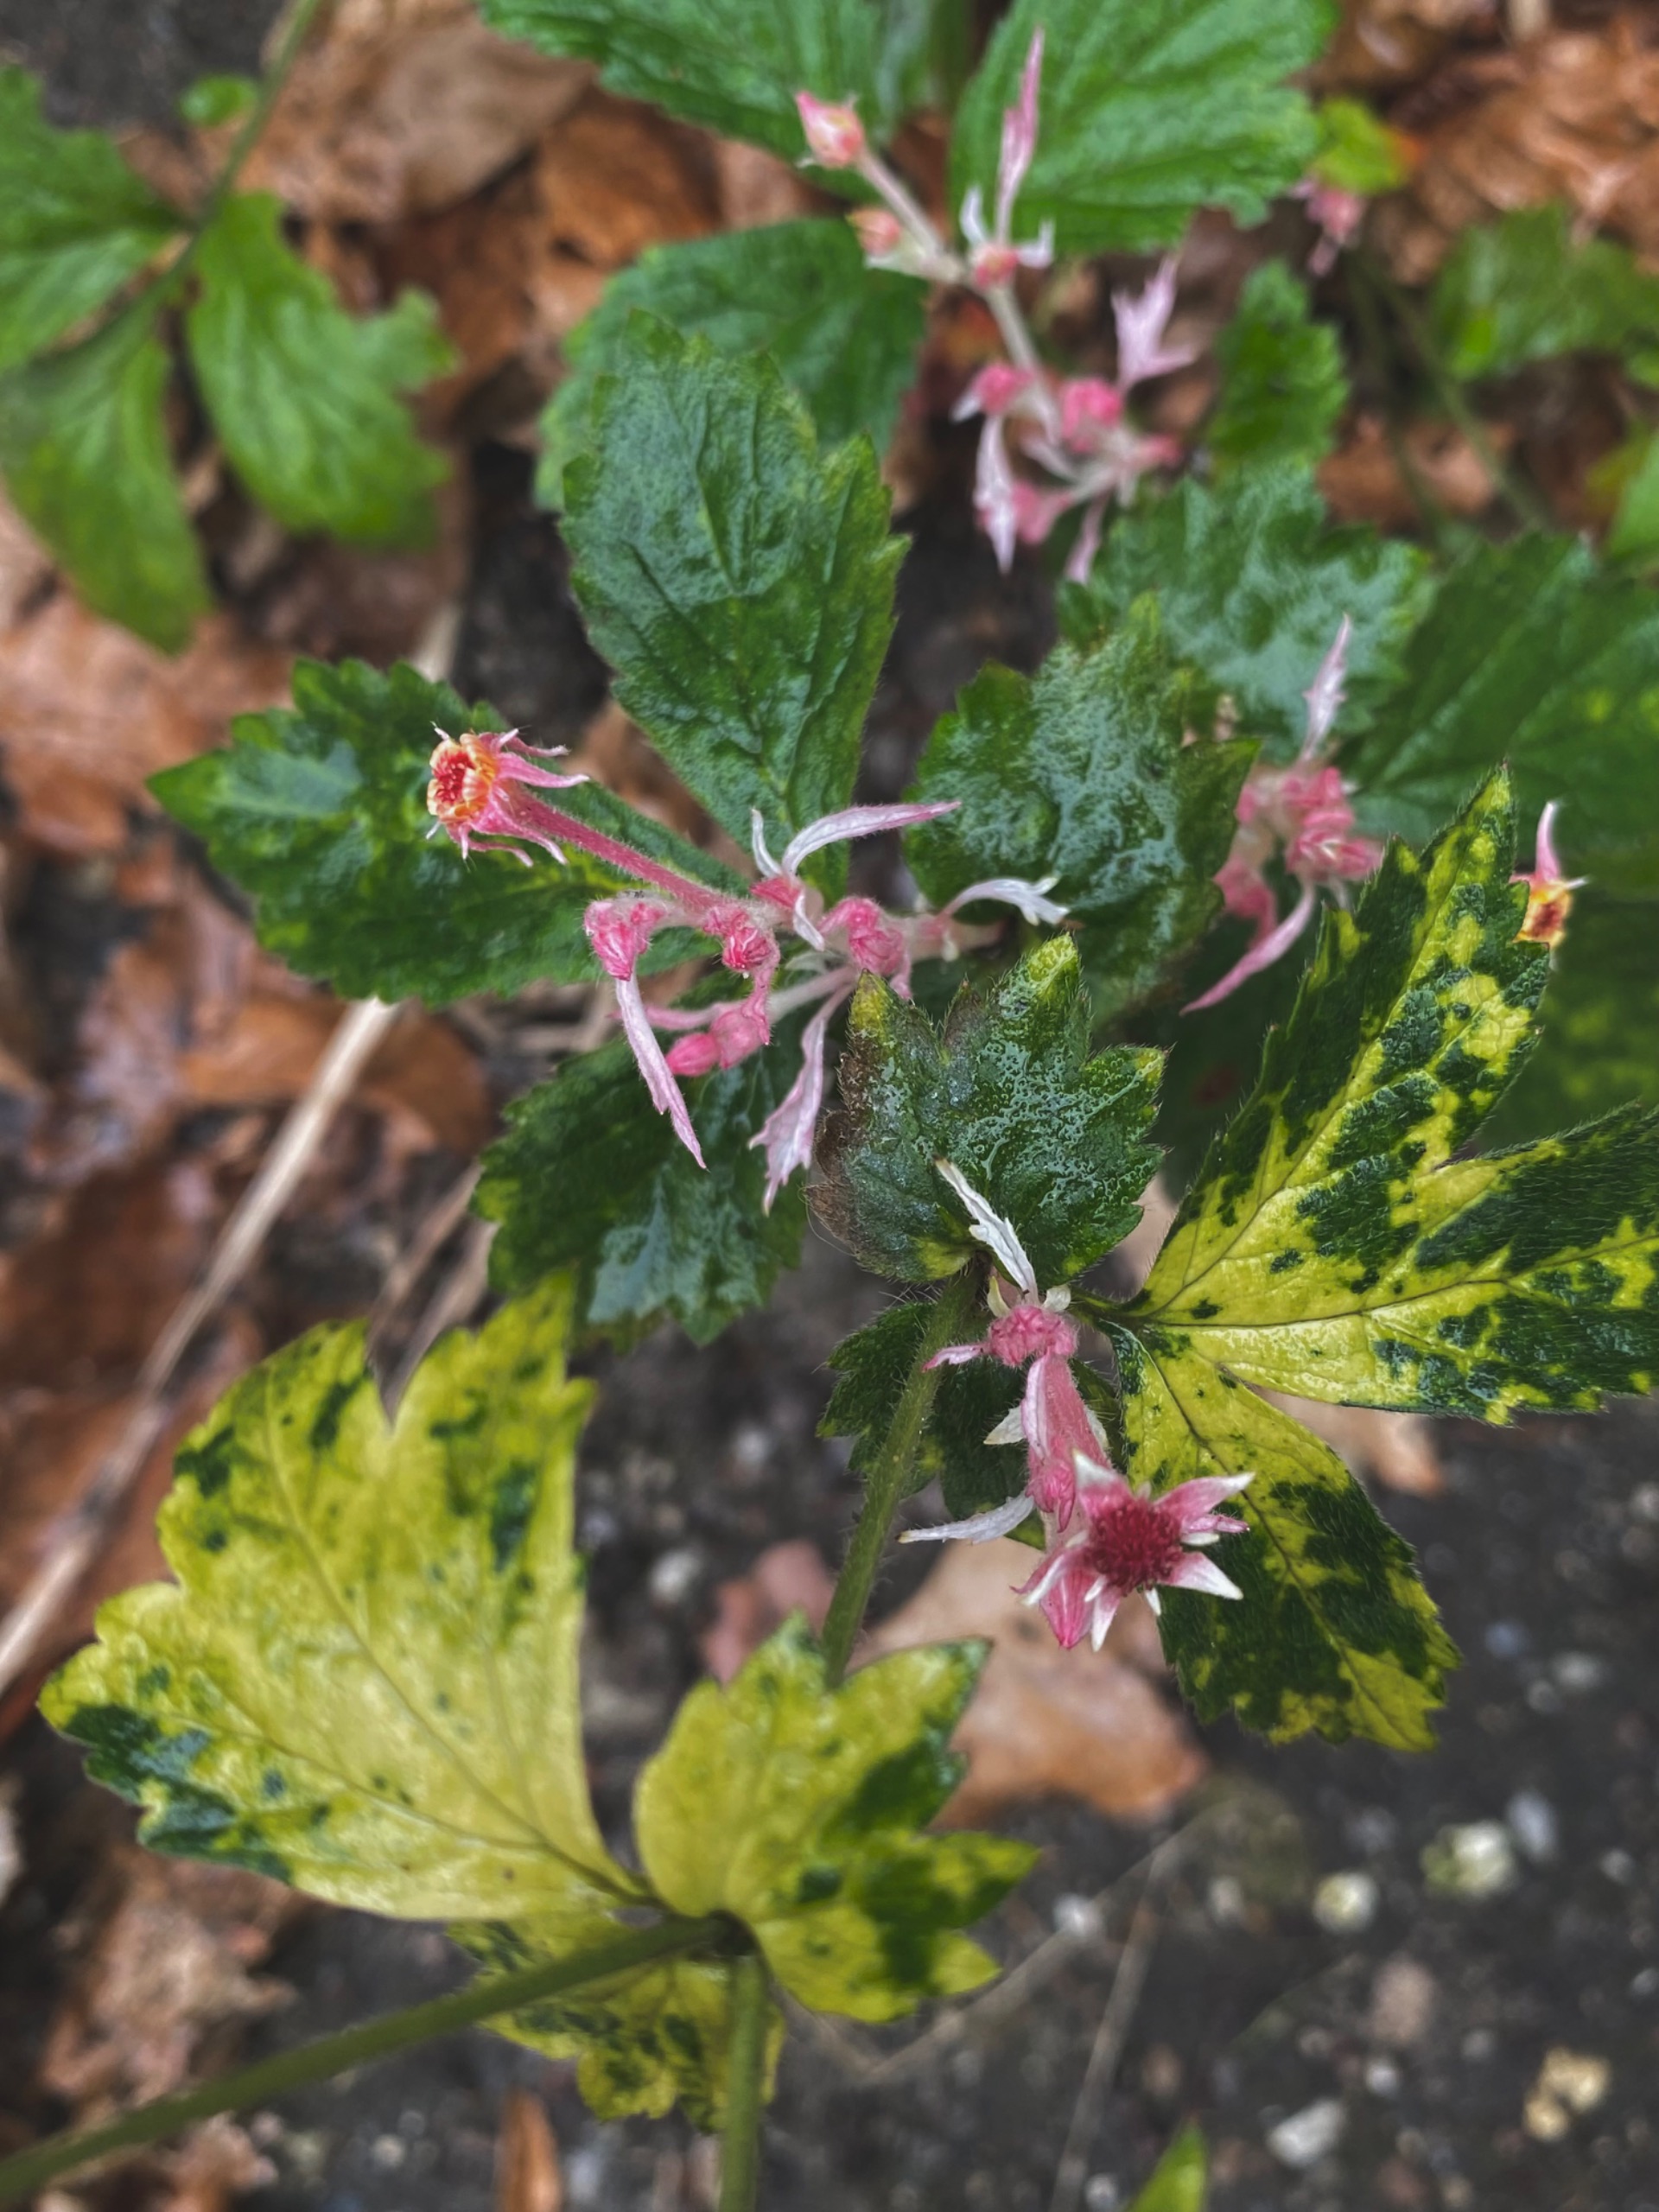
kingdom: Plantae
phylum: Tracheophyta
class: Magnoliopsida
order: Rosales
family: Rosaceae
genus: Geum
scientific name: Geum urbanum
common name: Feber-nellikerod
